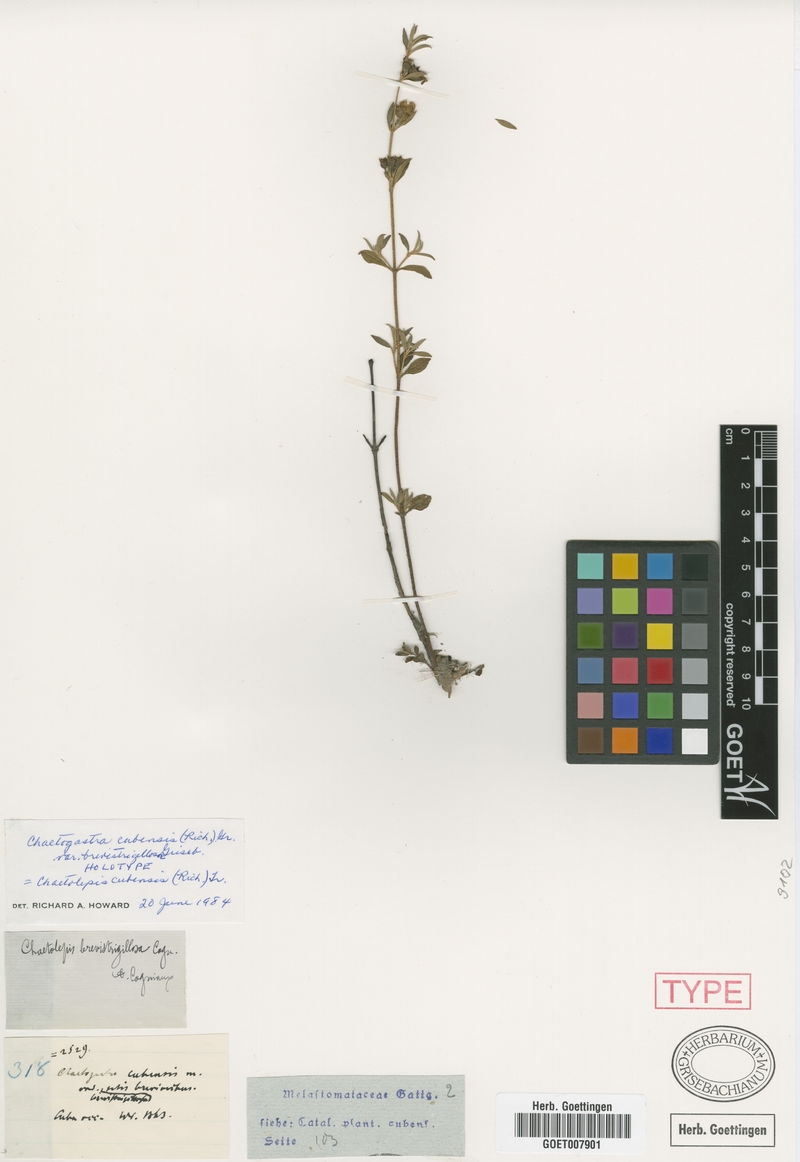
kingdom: Plantae
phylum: Tracheophyta
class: Magnoliopsida
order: Myrtales
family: Melastomataceae
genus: Chaetogastra
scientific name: Chaetogastra cubensis
